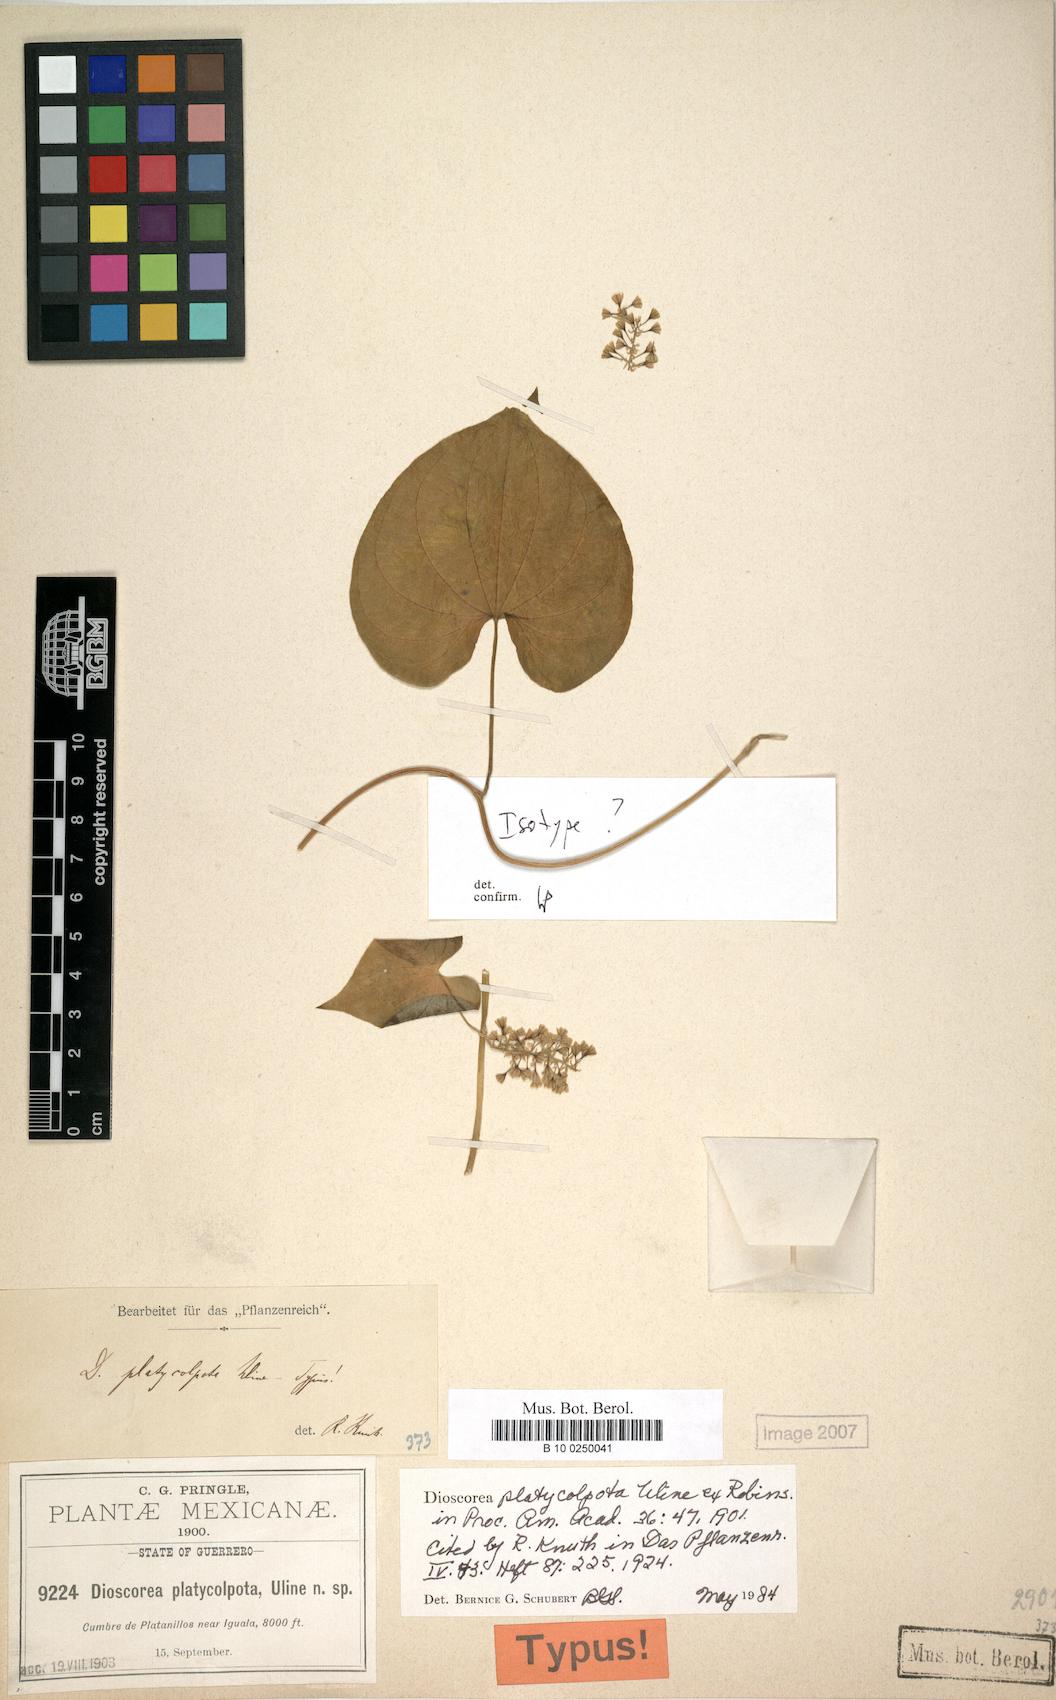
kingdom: Plantae
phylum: Tracheophyta
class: Liliopsida
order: Dioscoreales
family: Dioscoreaceae
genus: Dioscorea
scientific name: Dioscorea platycolpota
